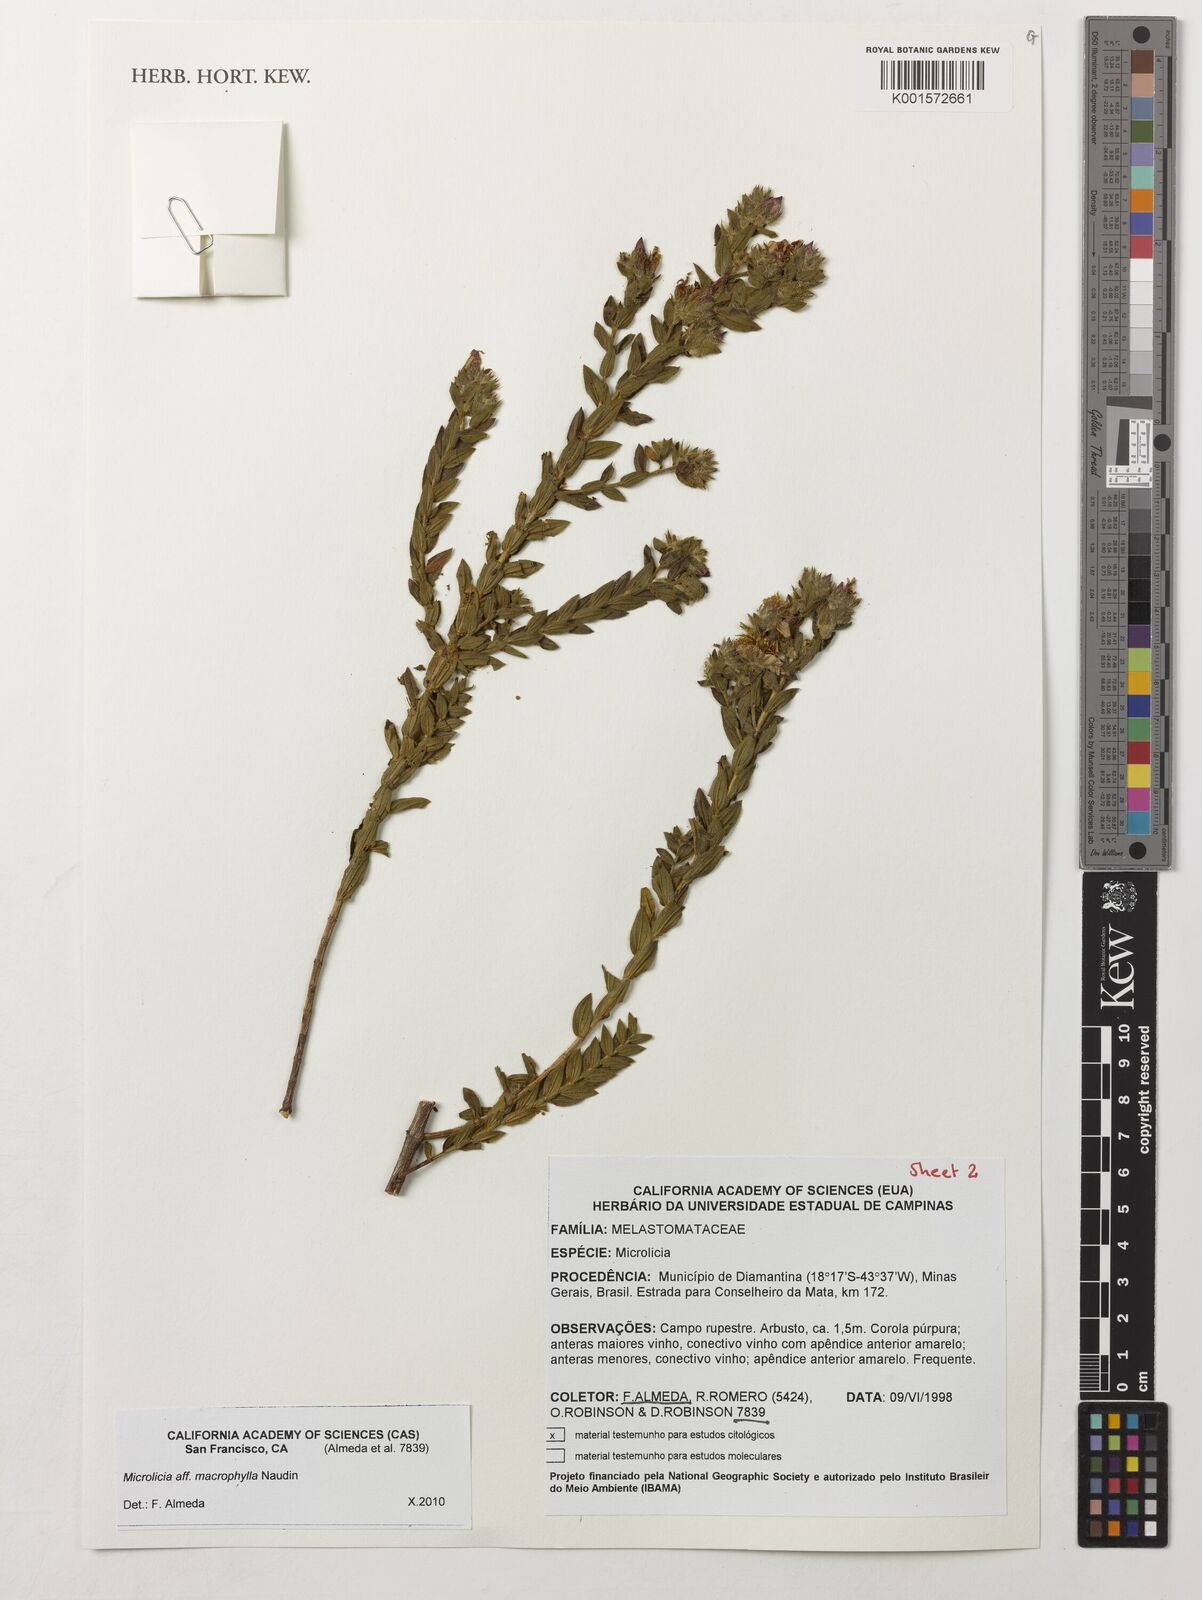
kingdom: Plantae
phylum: Tracheophyta
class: Magnoliopsida
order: Myrtales
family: Melastomataceae
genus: Microlicia
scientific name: Microlicia macrophylla
